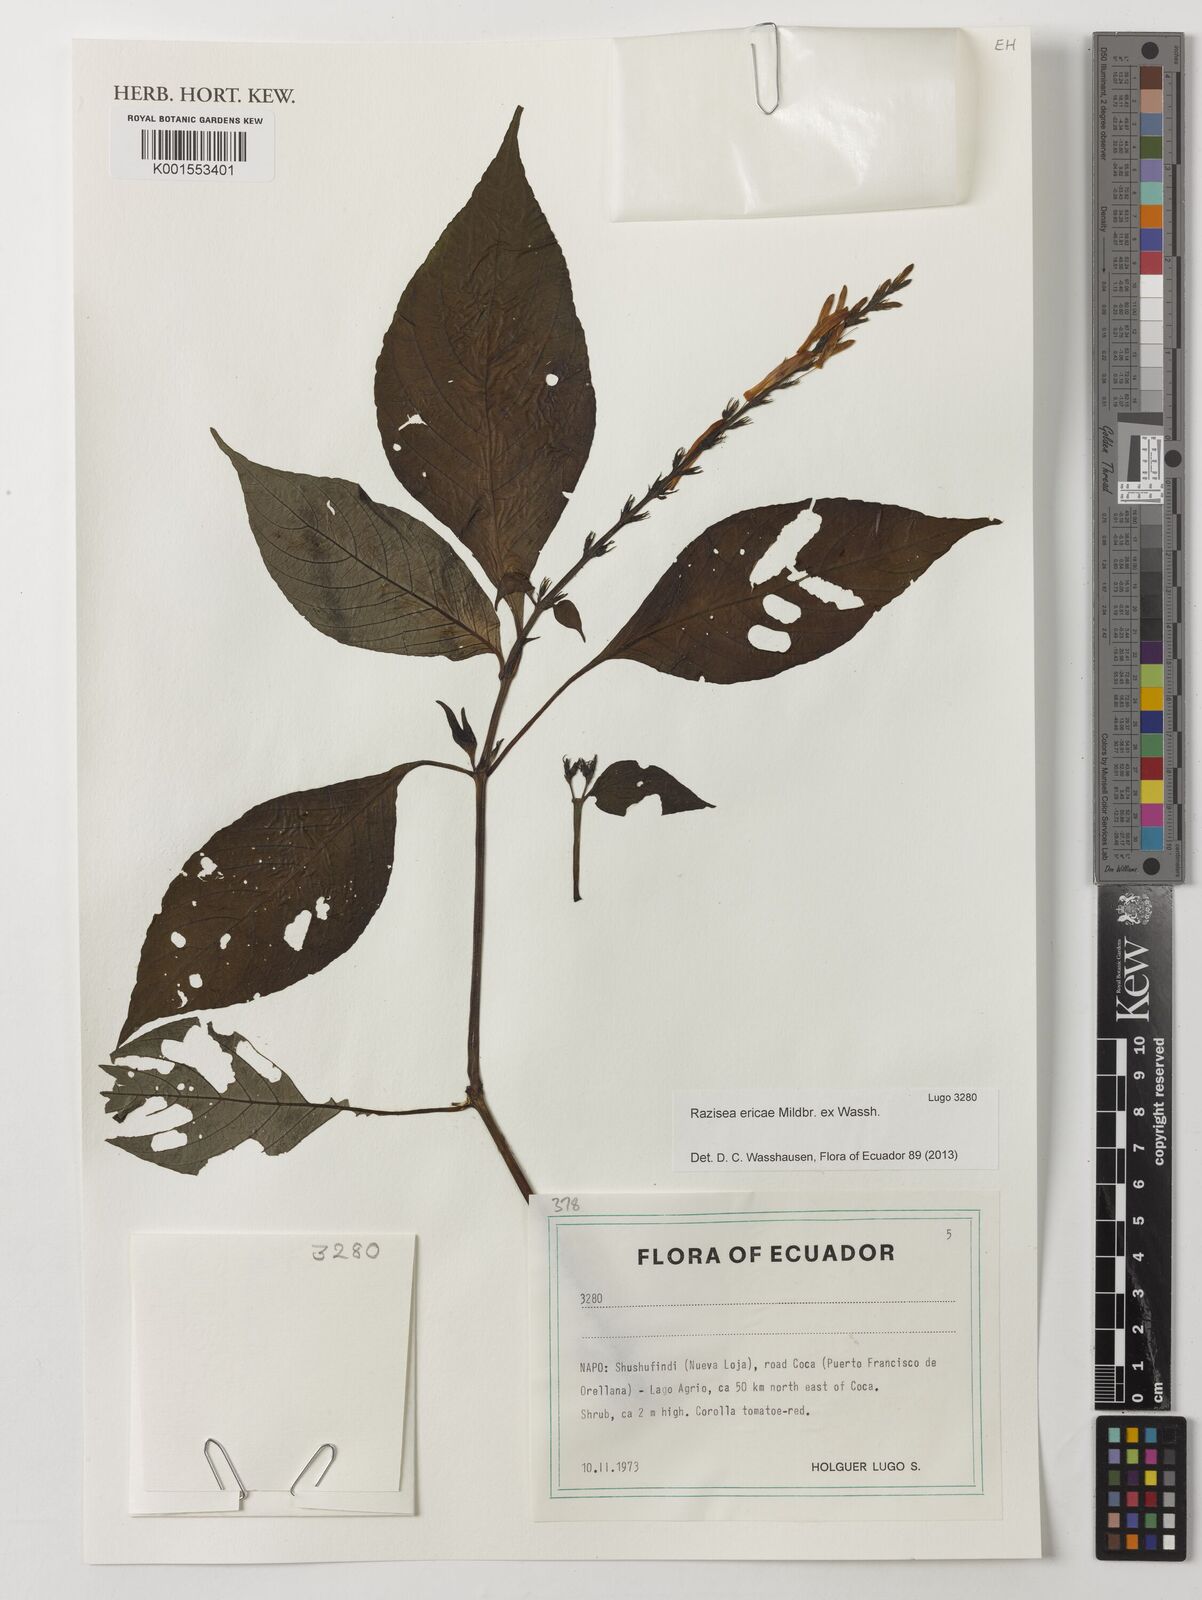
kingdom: Plantae
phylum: Tracheophyta
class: Magnoliopsida
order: Lamiales
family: Acanthaceae
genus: Stenostephanus
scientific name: Stenostephanus ericae
